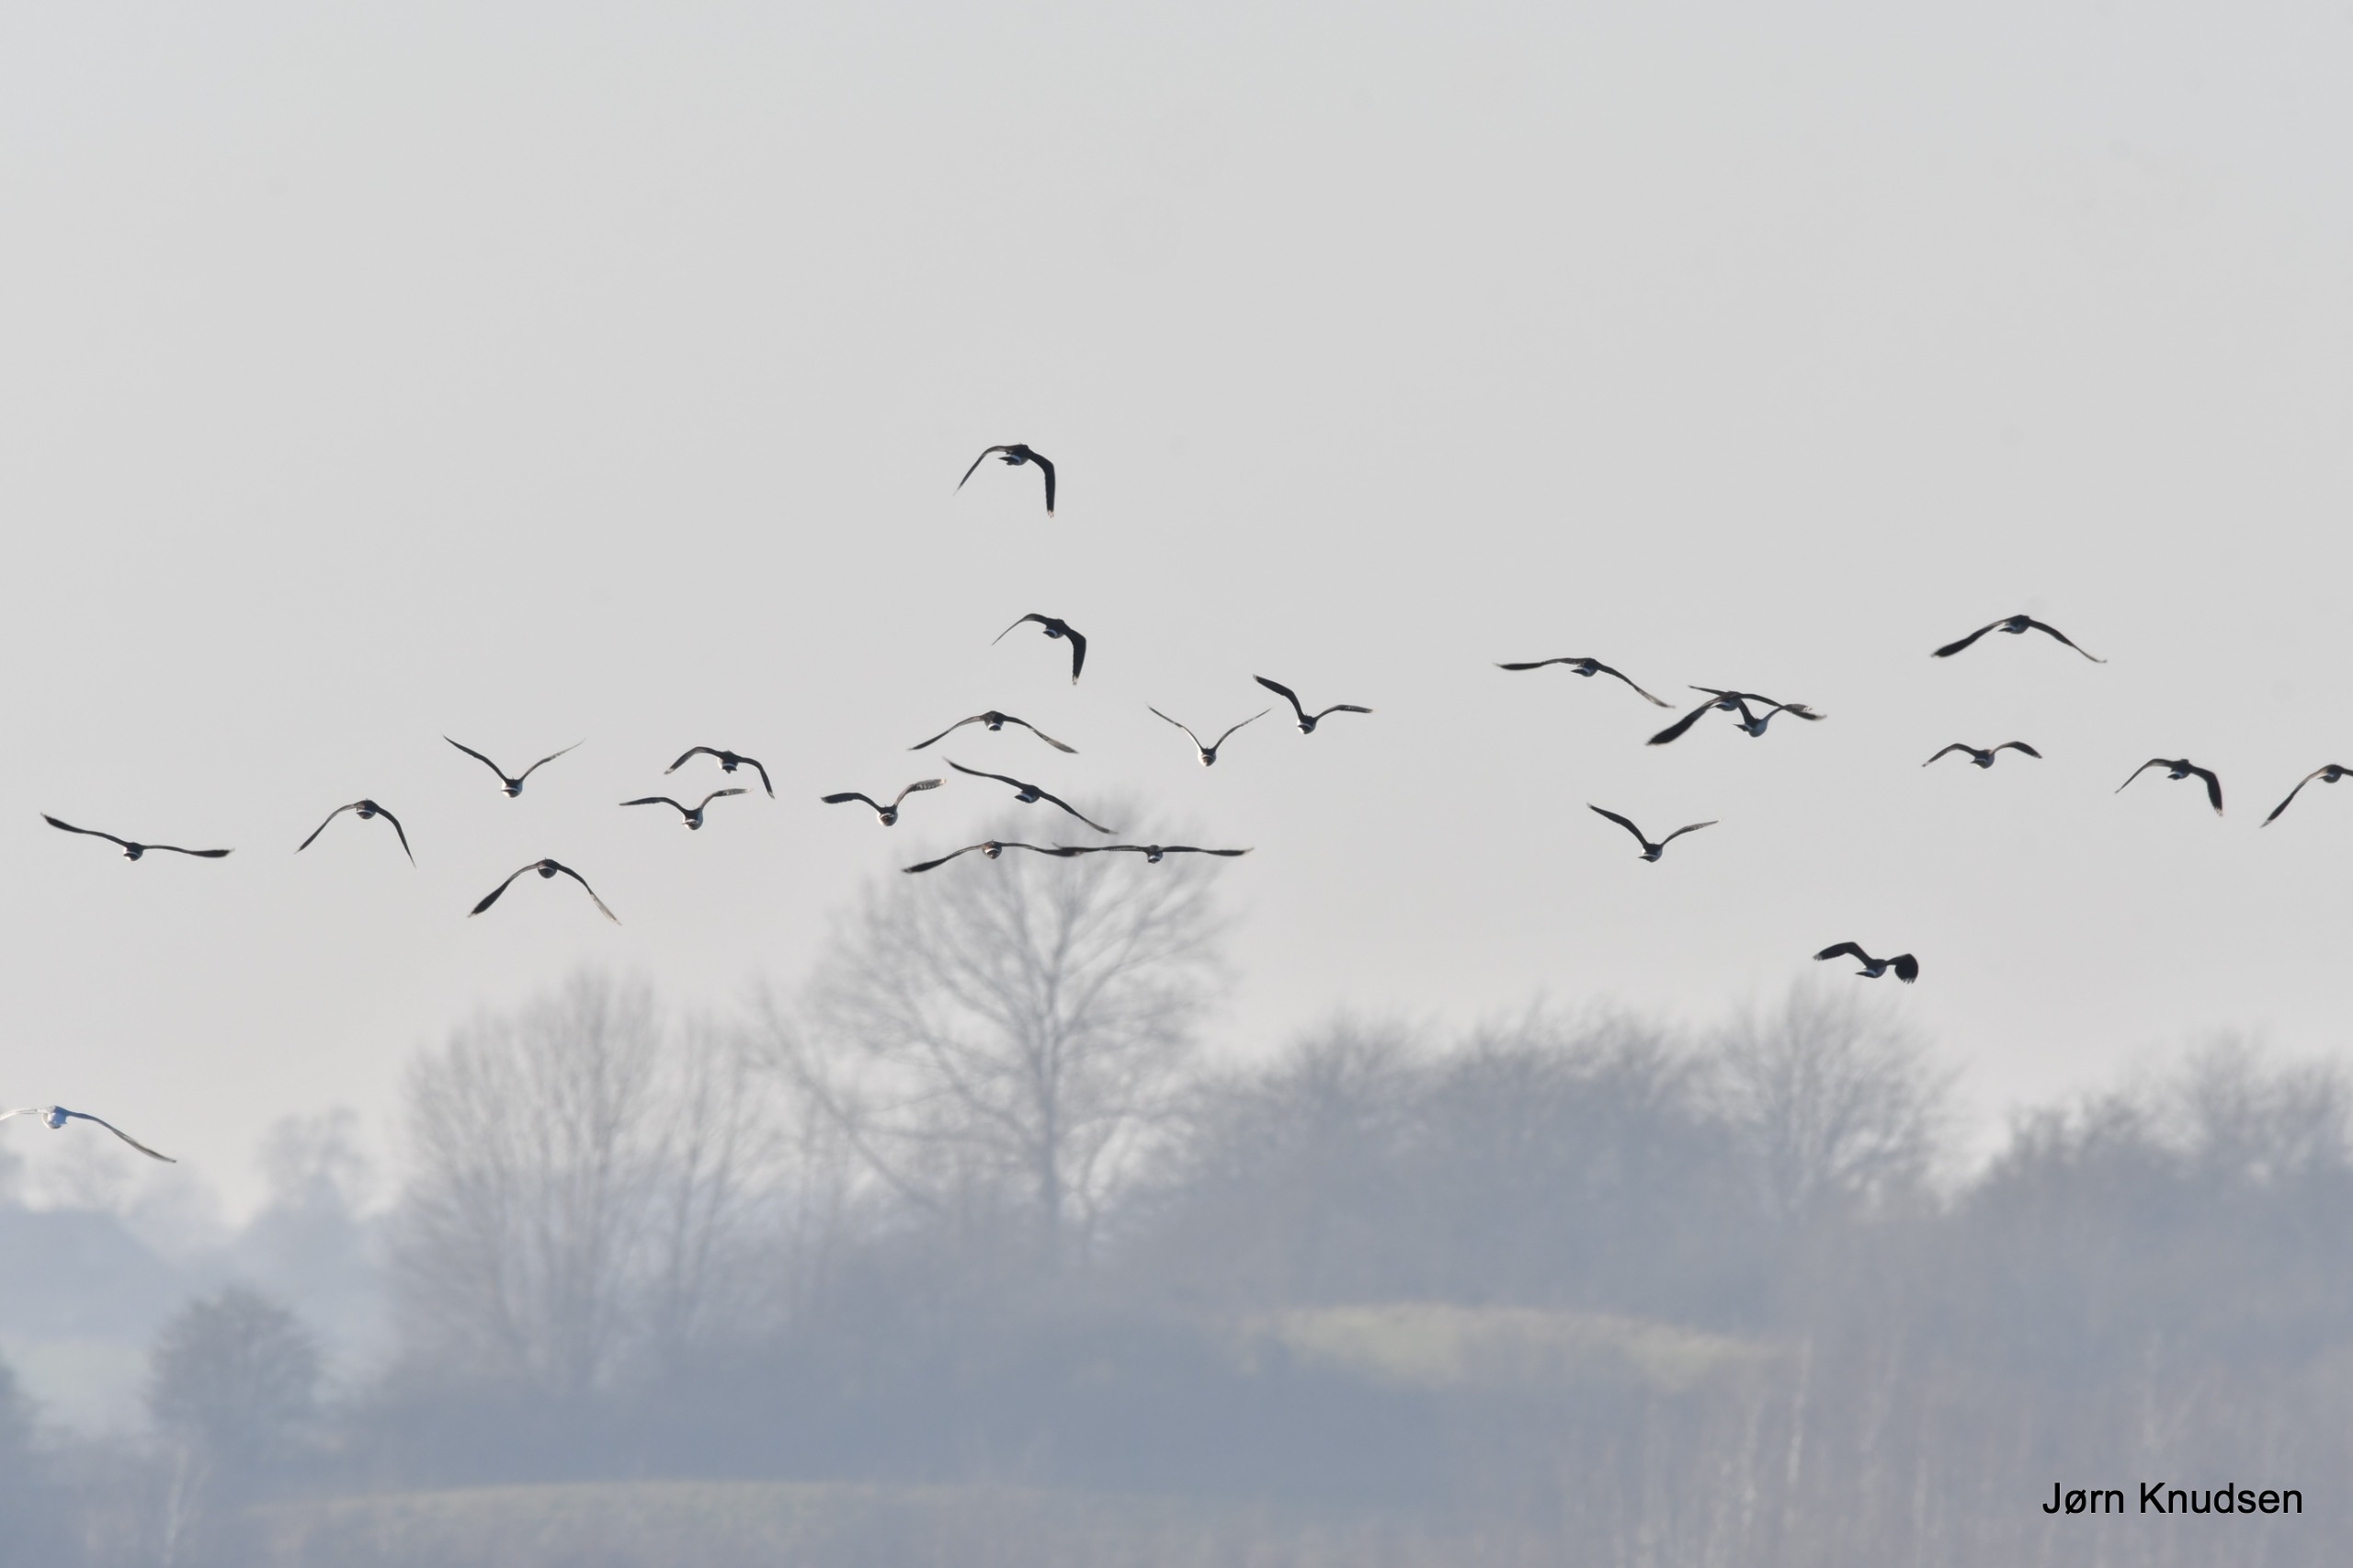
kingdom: Animalia
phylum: Chordata
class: Aves
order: Charadriiformes
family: Charadriidae
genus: Vanellus
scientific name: Vanellus vanellus
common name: Vibe
